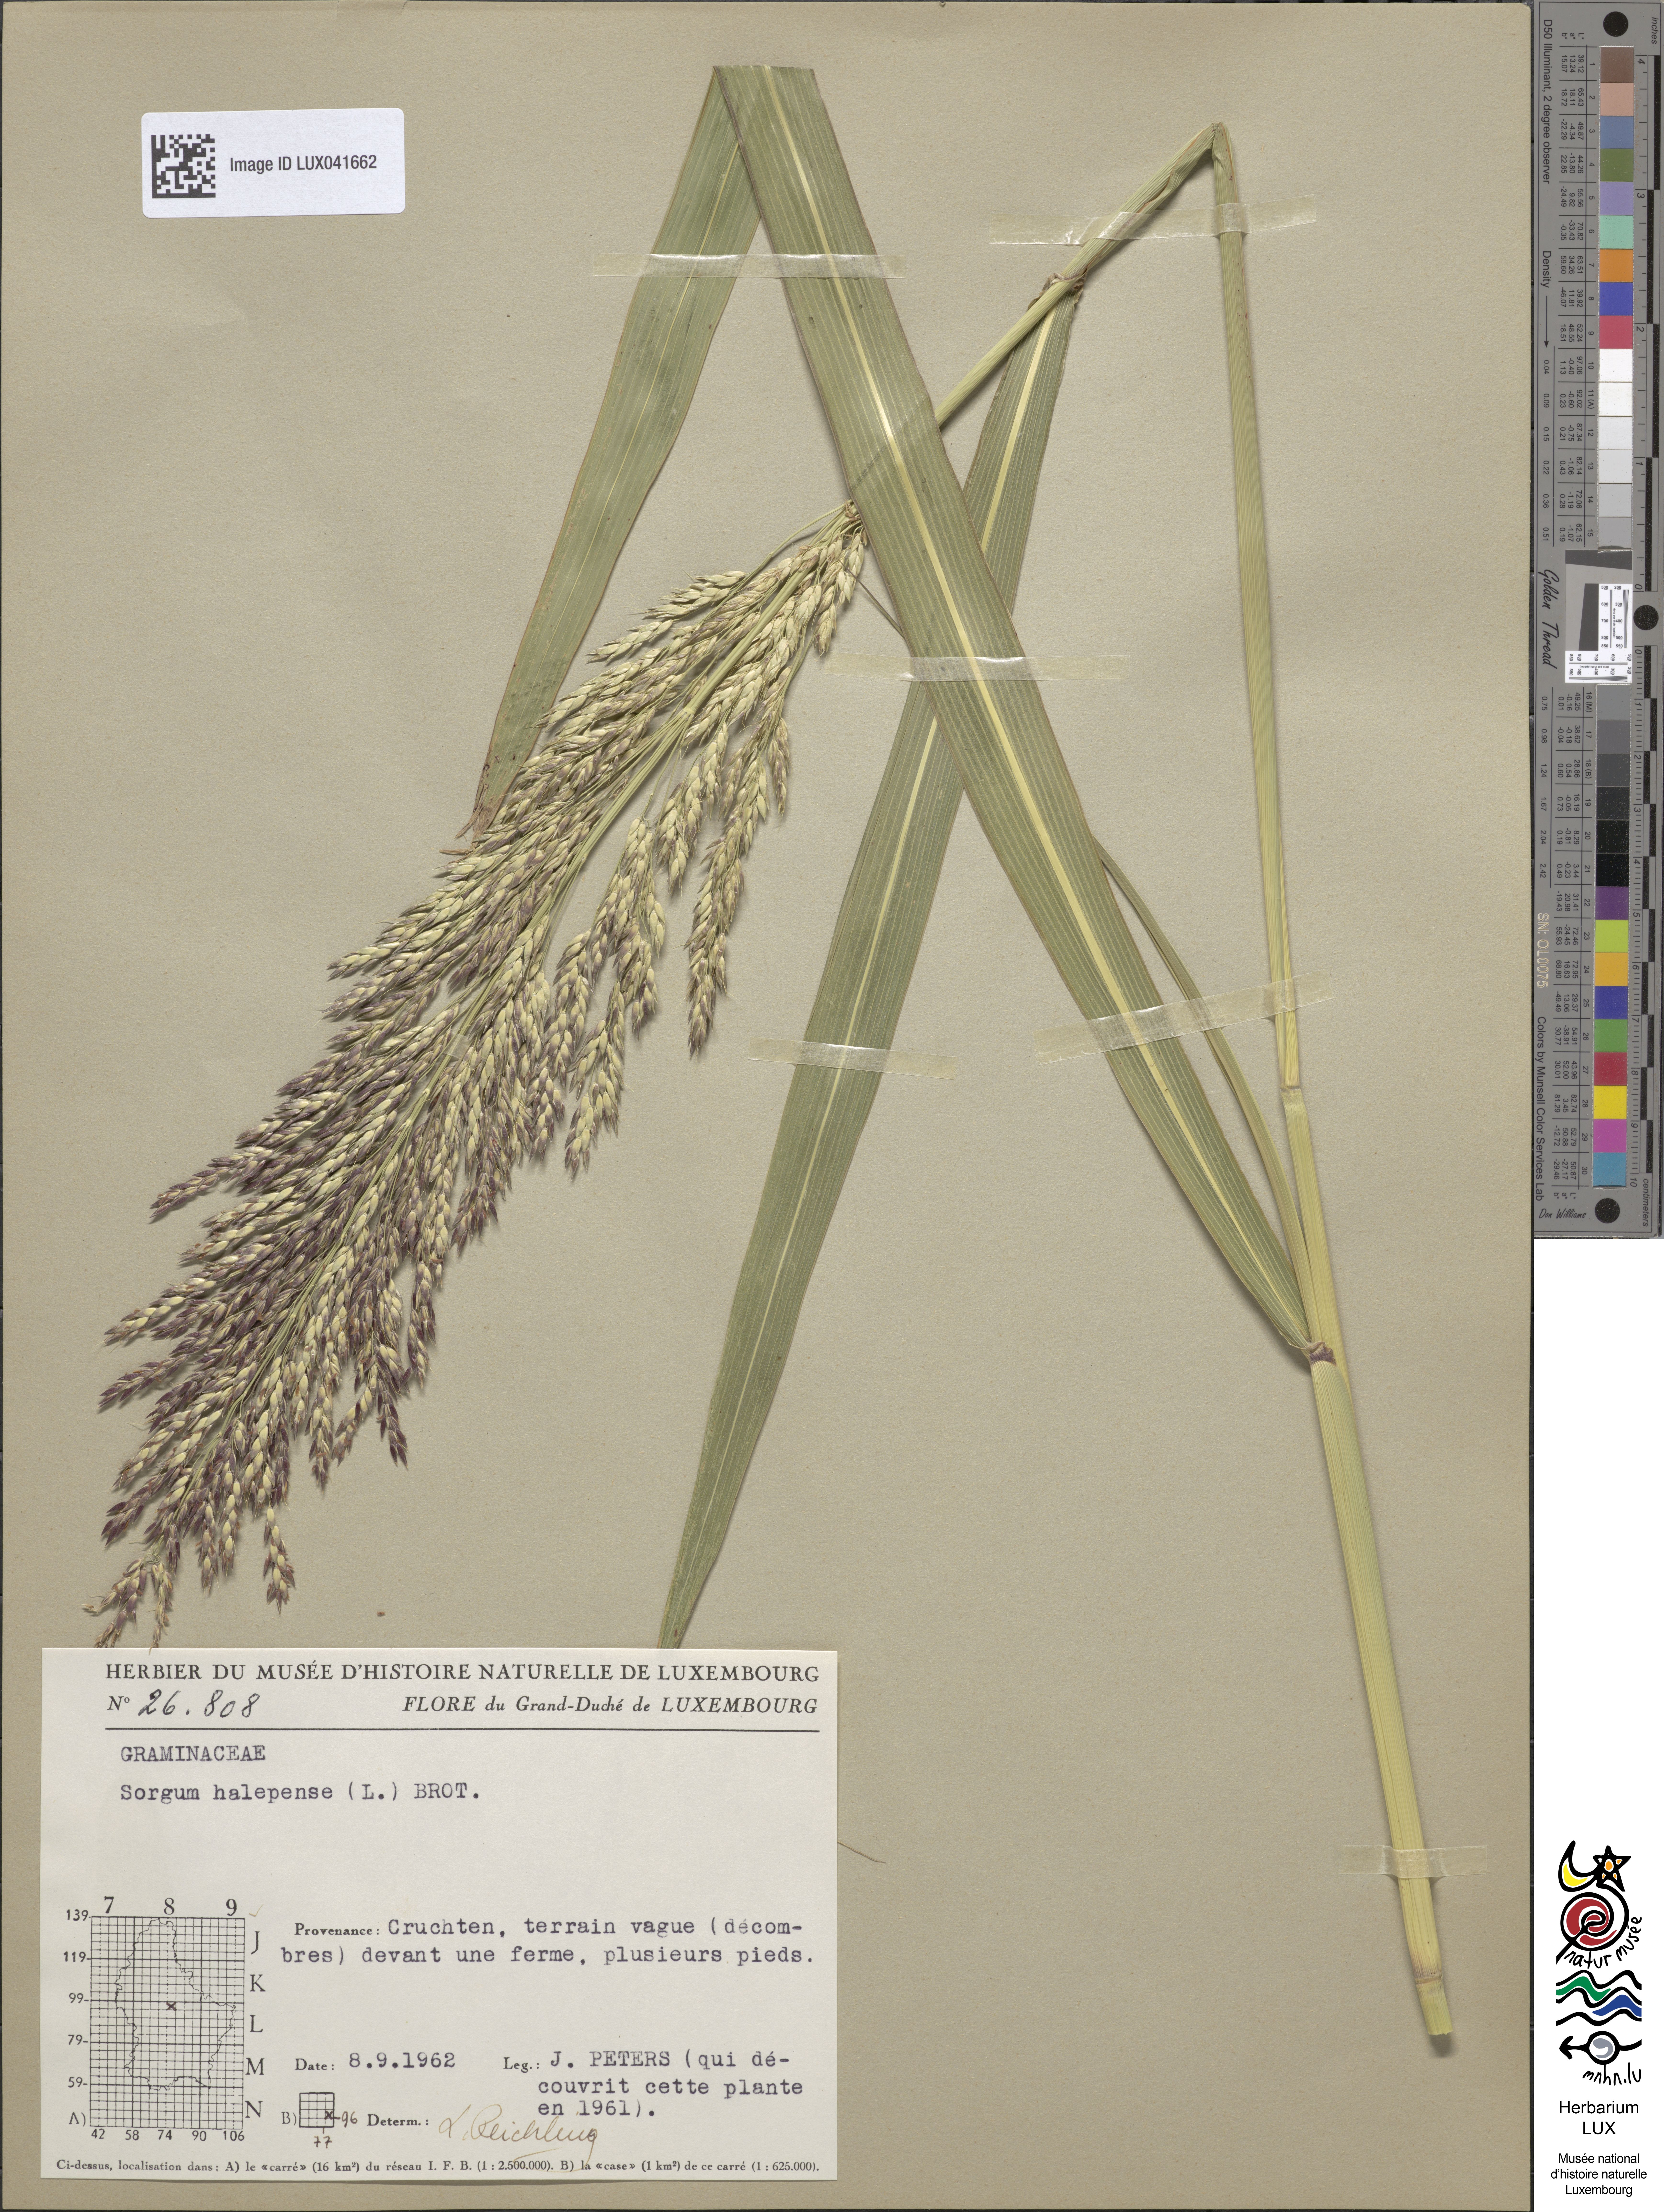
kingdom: Plantae
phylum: Tracheophyta
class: Liliopsida
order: Poales
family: Poaceae
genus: Sorghum
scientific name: Sorghum halepense
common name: Johnson-grass
